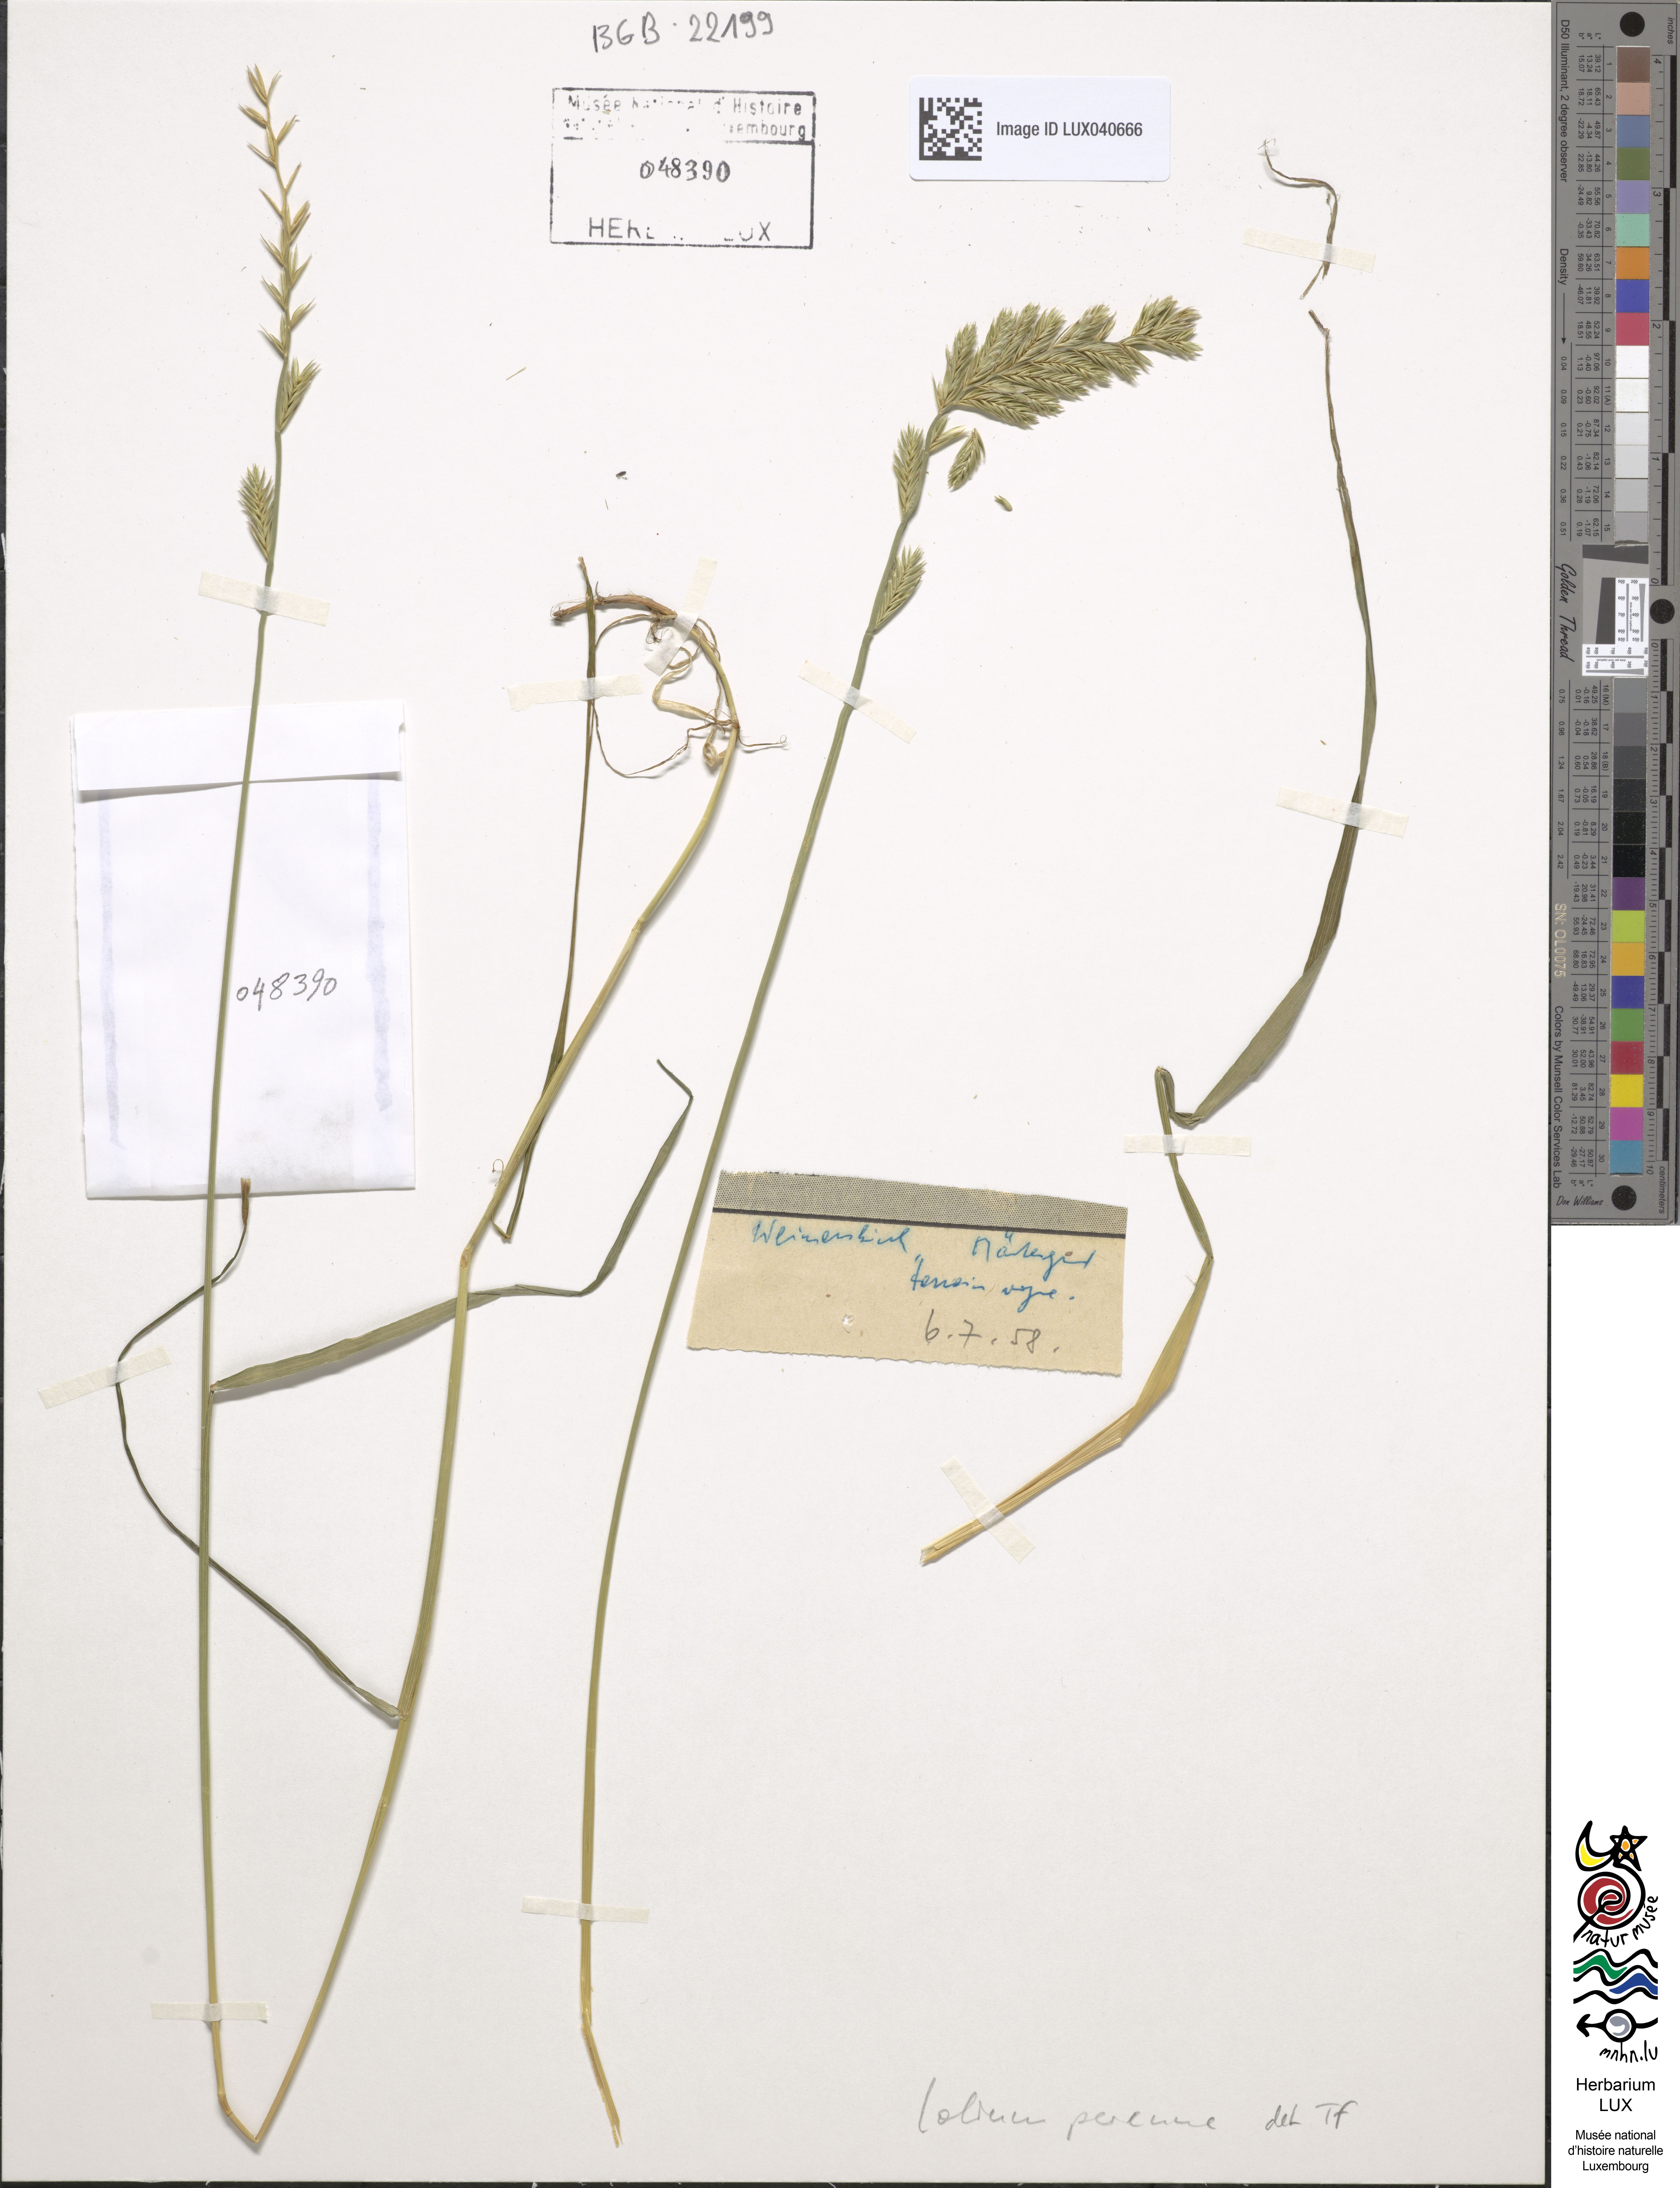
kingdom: Plantae
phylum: Tracheophyta
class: Liliopsida
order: Poales
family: Poaceae
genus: Lolium
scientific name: Lolium perenne
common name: Perennial ryegrass
